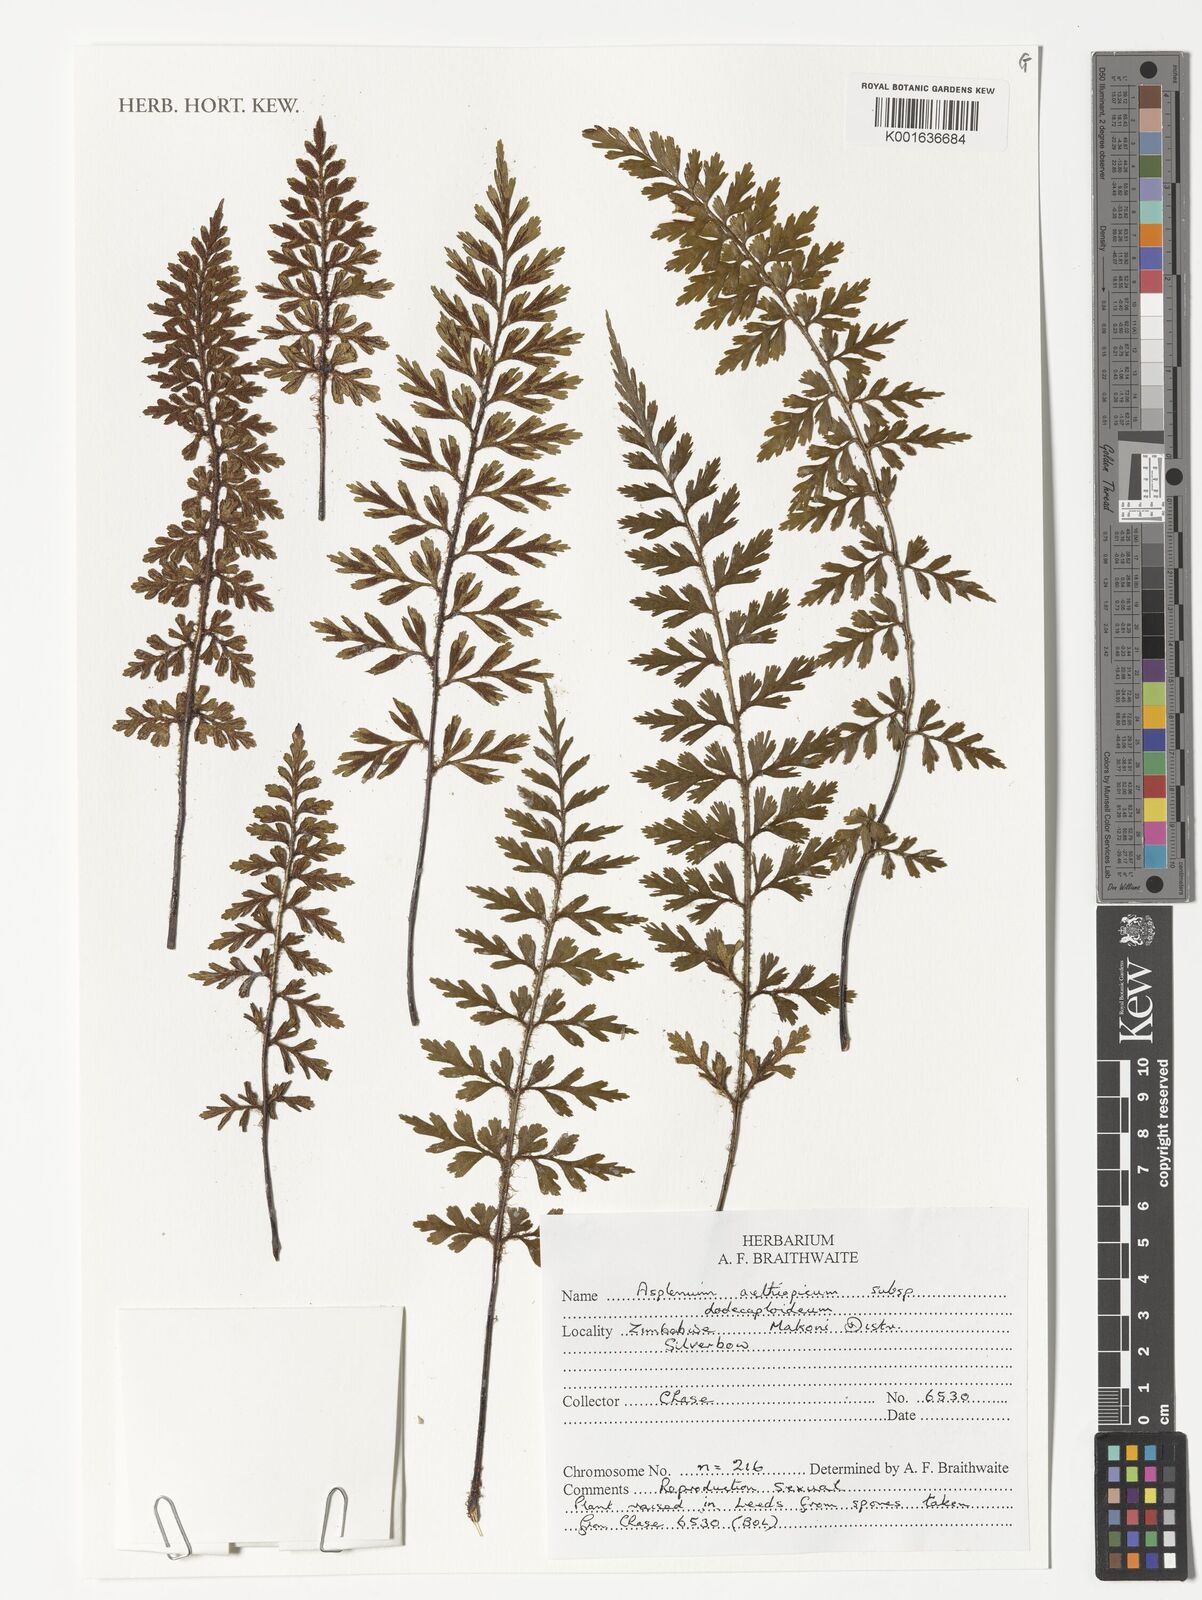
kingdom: Plantae
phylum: Tracheophyta
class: Polypodiopsida
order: Polypodiales
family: Aspleniaceae
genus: Asplenium
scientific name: Asplenium dodecaploideum
